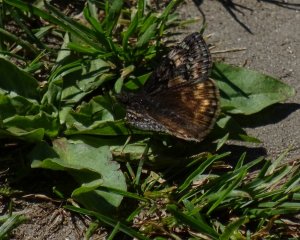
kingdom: Animalia
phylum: Arthropoda
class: Insecta
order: Lepidoptera
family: Hesperiidae
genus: Gesta
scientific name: Gesta
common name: Juvenal's Duskywing
